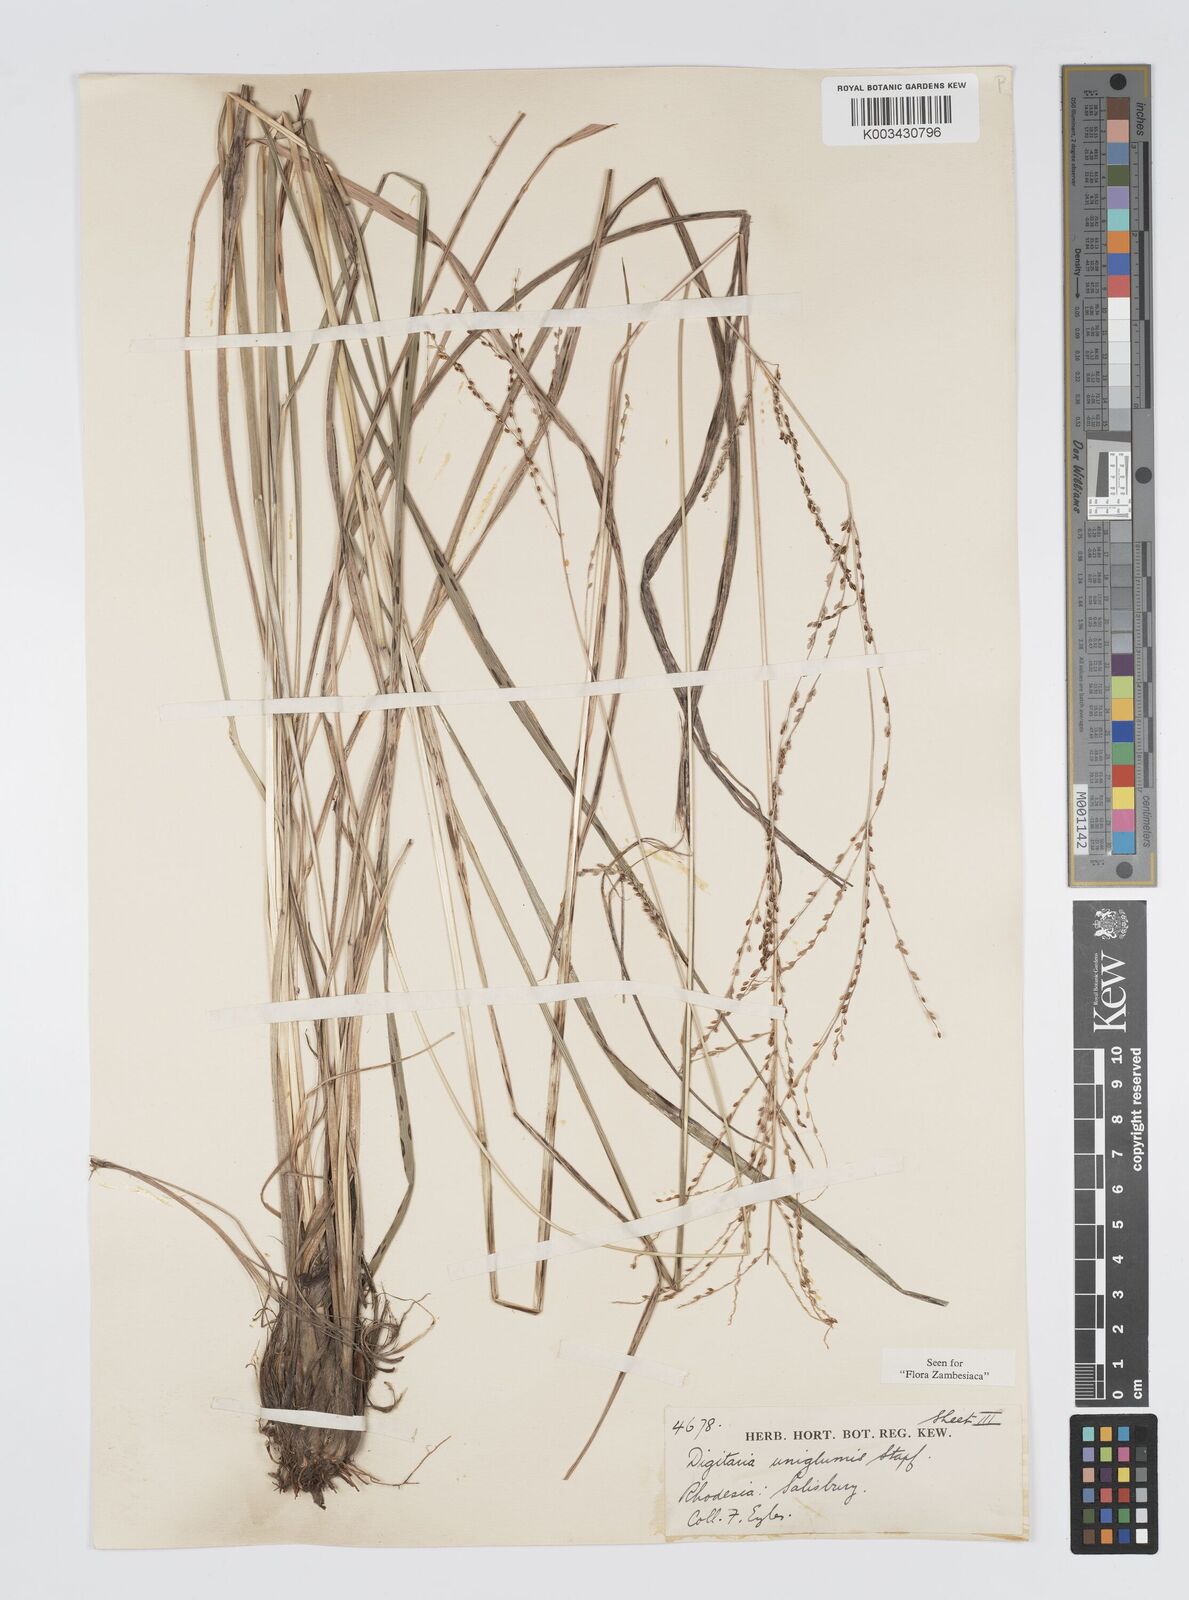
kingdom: Plantae
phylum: Tracheophyta
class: Liliopsida
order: Poales
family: Poaceae
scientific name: Poaceae
